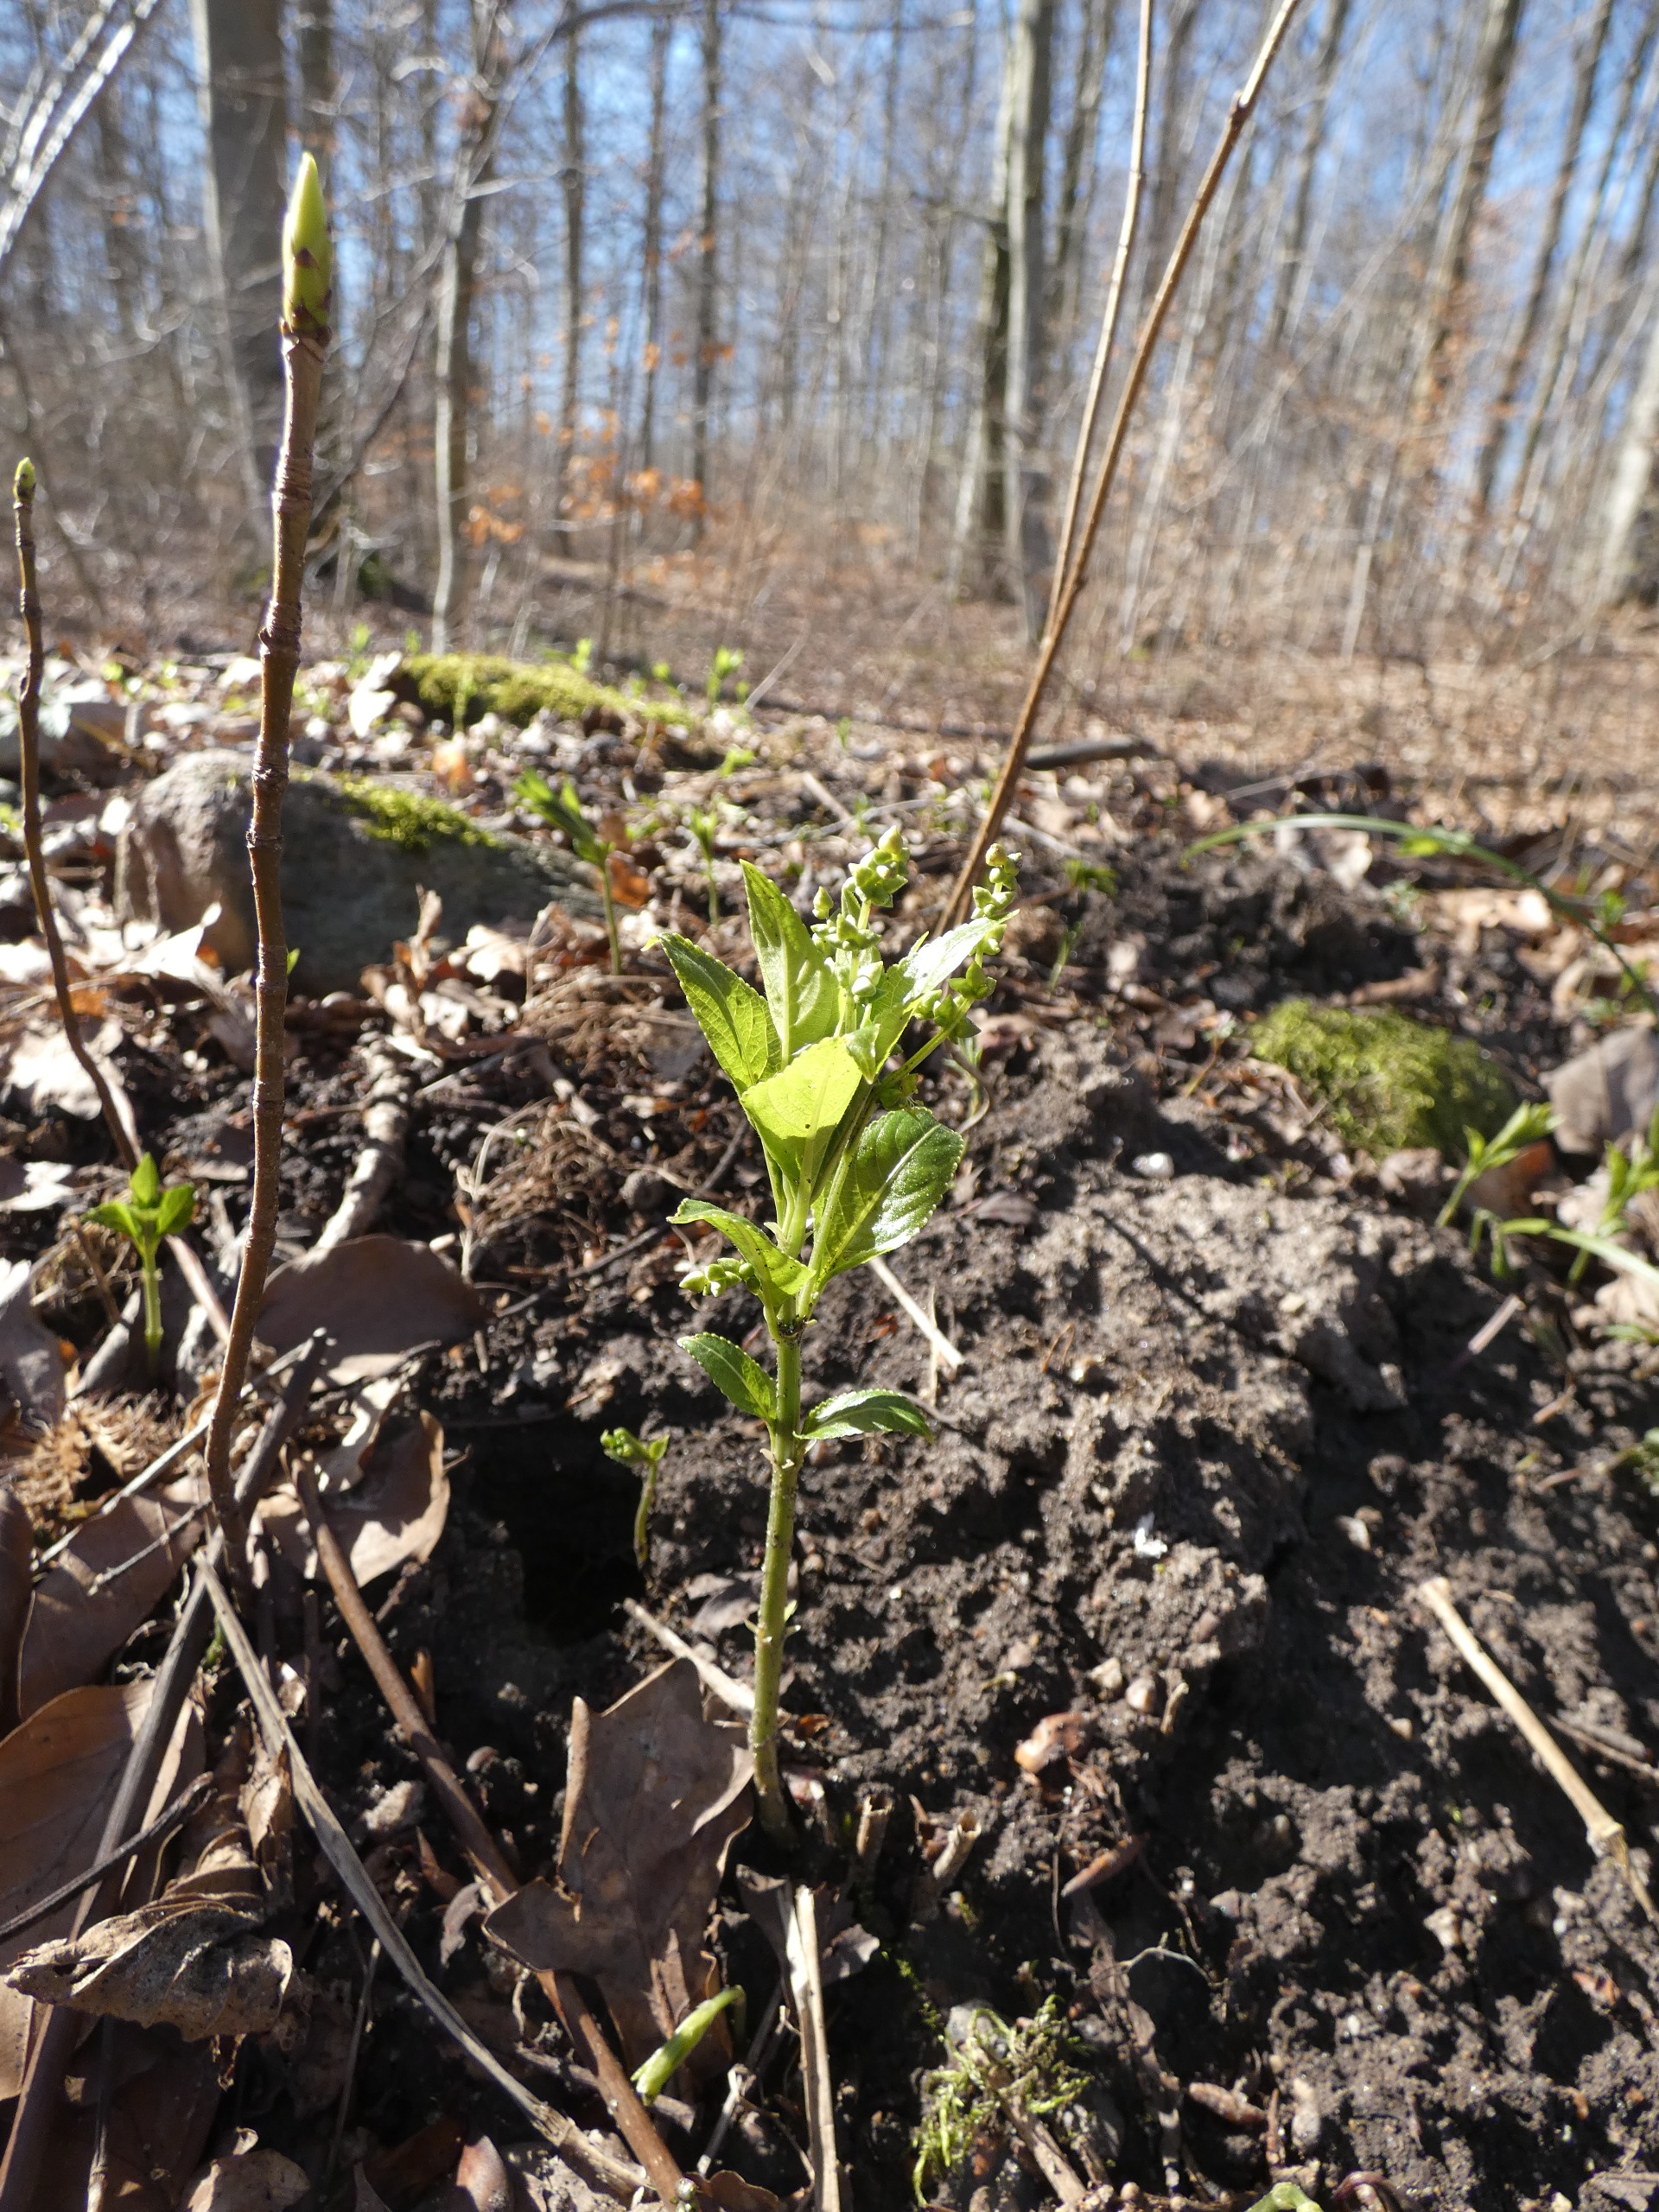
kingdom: Plantae
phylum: Tracheophyta
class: Magnoliopsida
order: Malpighiales
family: Euphorbiaceae
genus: Mercurialis
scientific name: Mercurialis perennis
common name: Almindelig bingelurt
